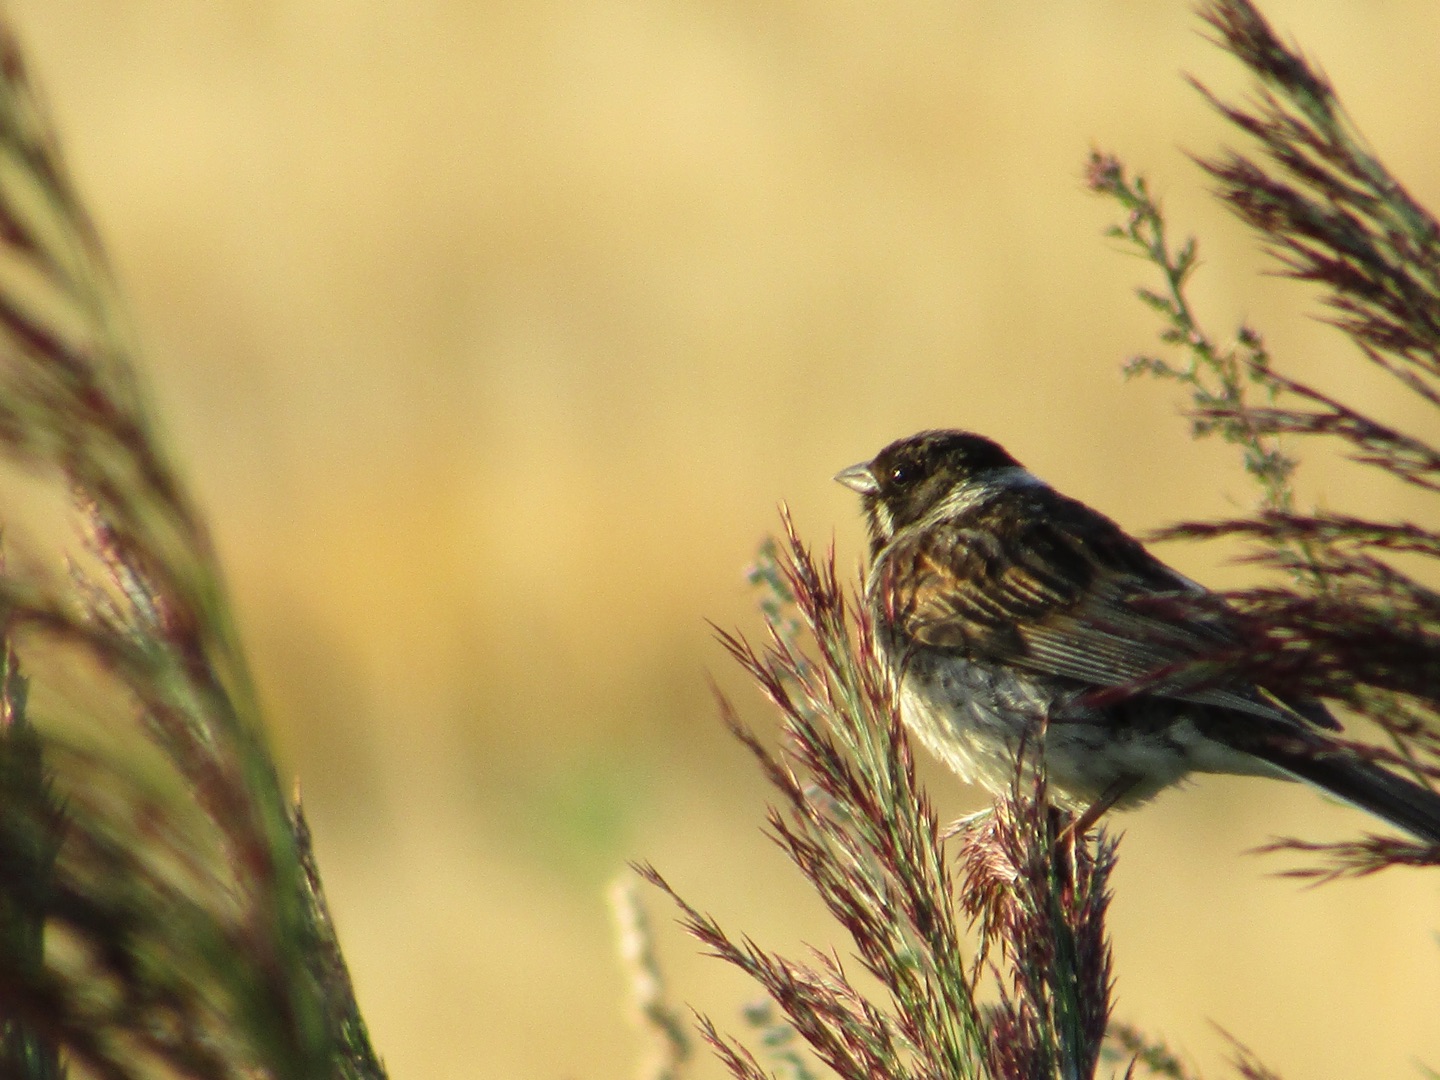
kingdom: Animalia
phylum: Chordata
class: Aves
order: Passeriformes
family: Emberizidae
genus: Emberiza
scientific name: Emberiza schoeniclus
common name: Rørspurv
